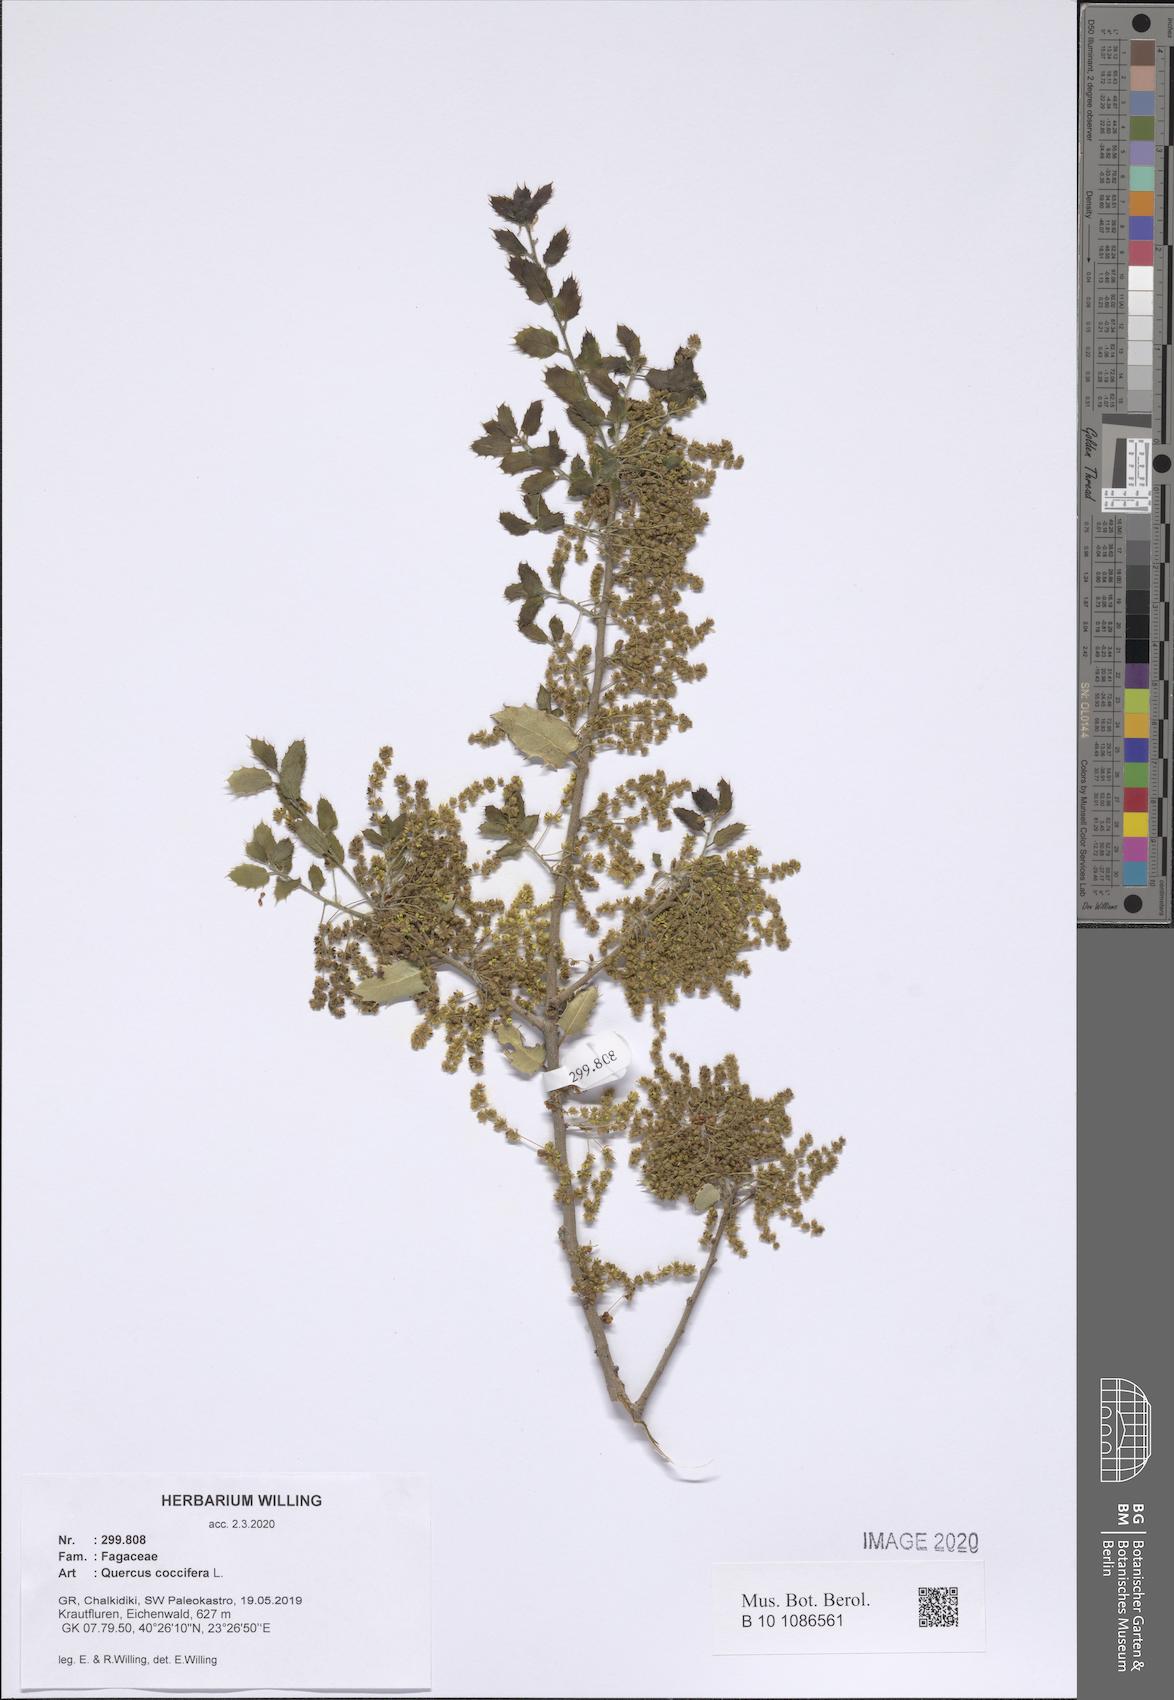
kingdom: Plantae
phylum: Tracheophyta
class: Magnoliopsida
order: Fagales
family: Fagaceae
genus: Quercus
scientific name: Quercus coccifera
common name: Kermes oak
